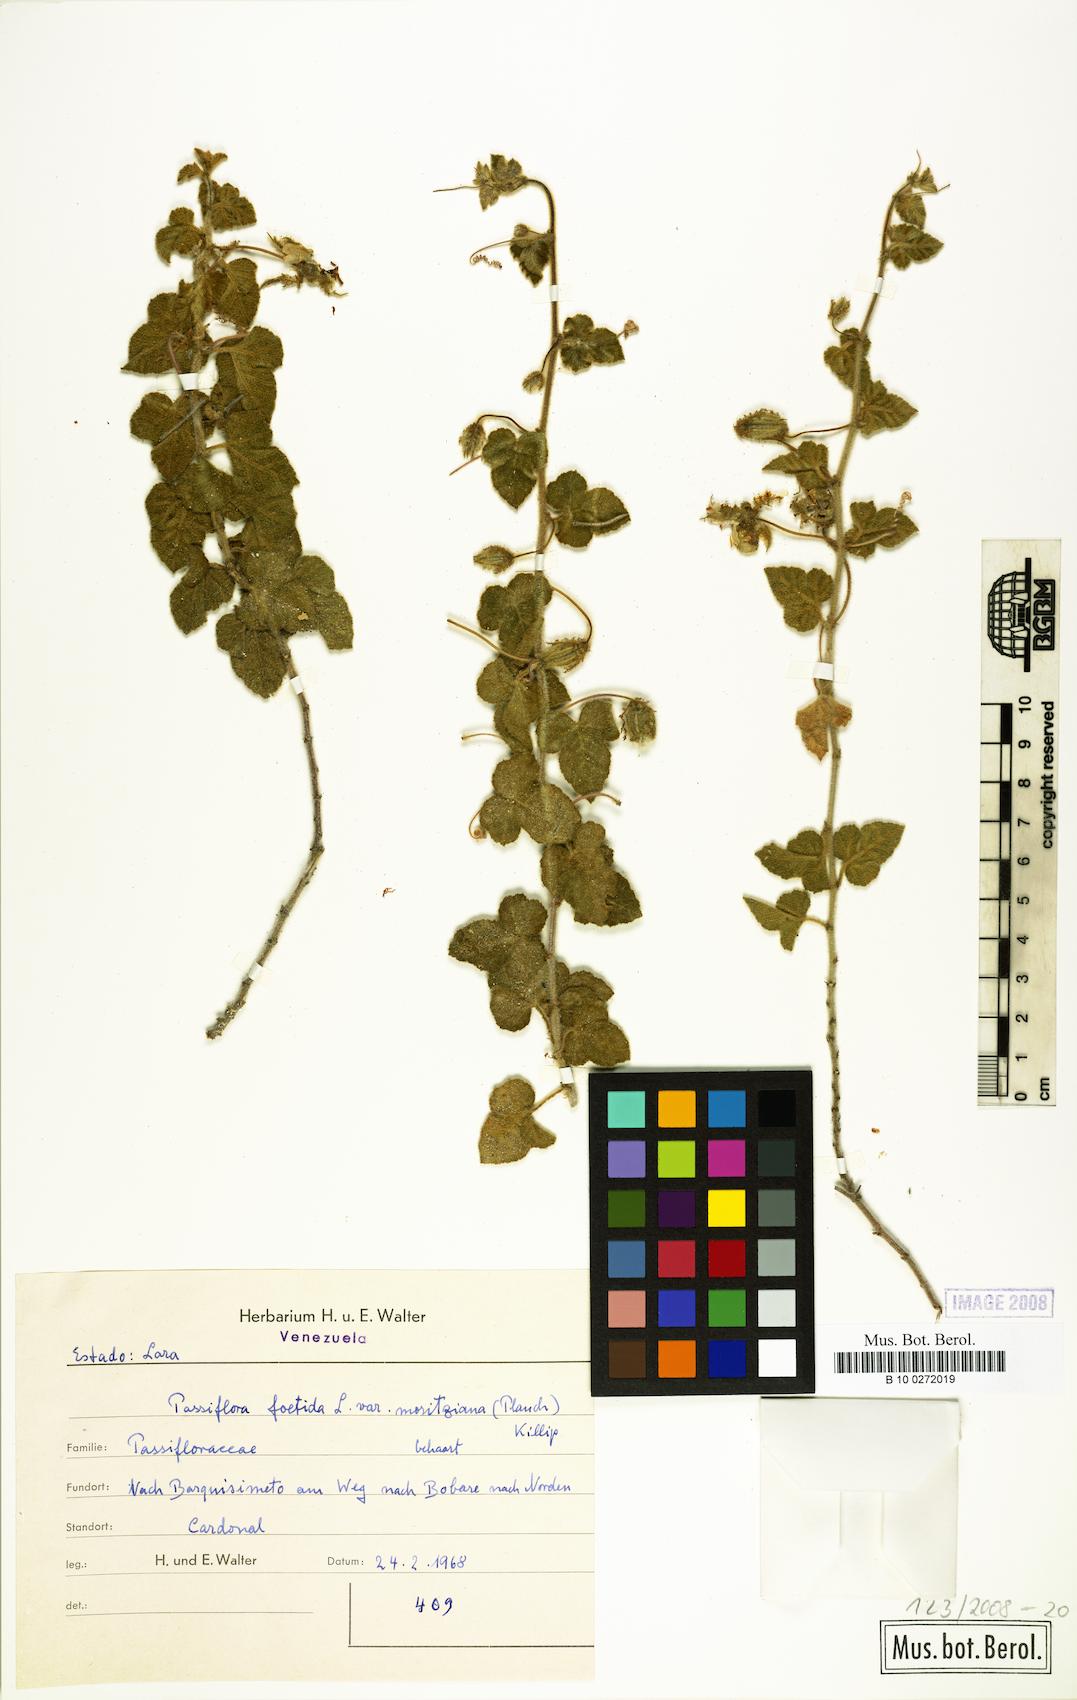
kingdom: Plantae
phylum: Tracheophyta
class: Magnoliopsida
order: Malpighiales
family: Passifloraceae
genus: Passiflora
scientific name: Passiflora foetida
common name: Fetid passionflower
